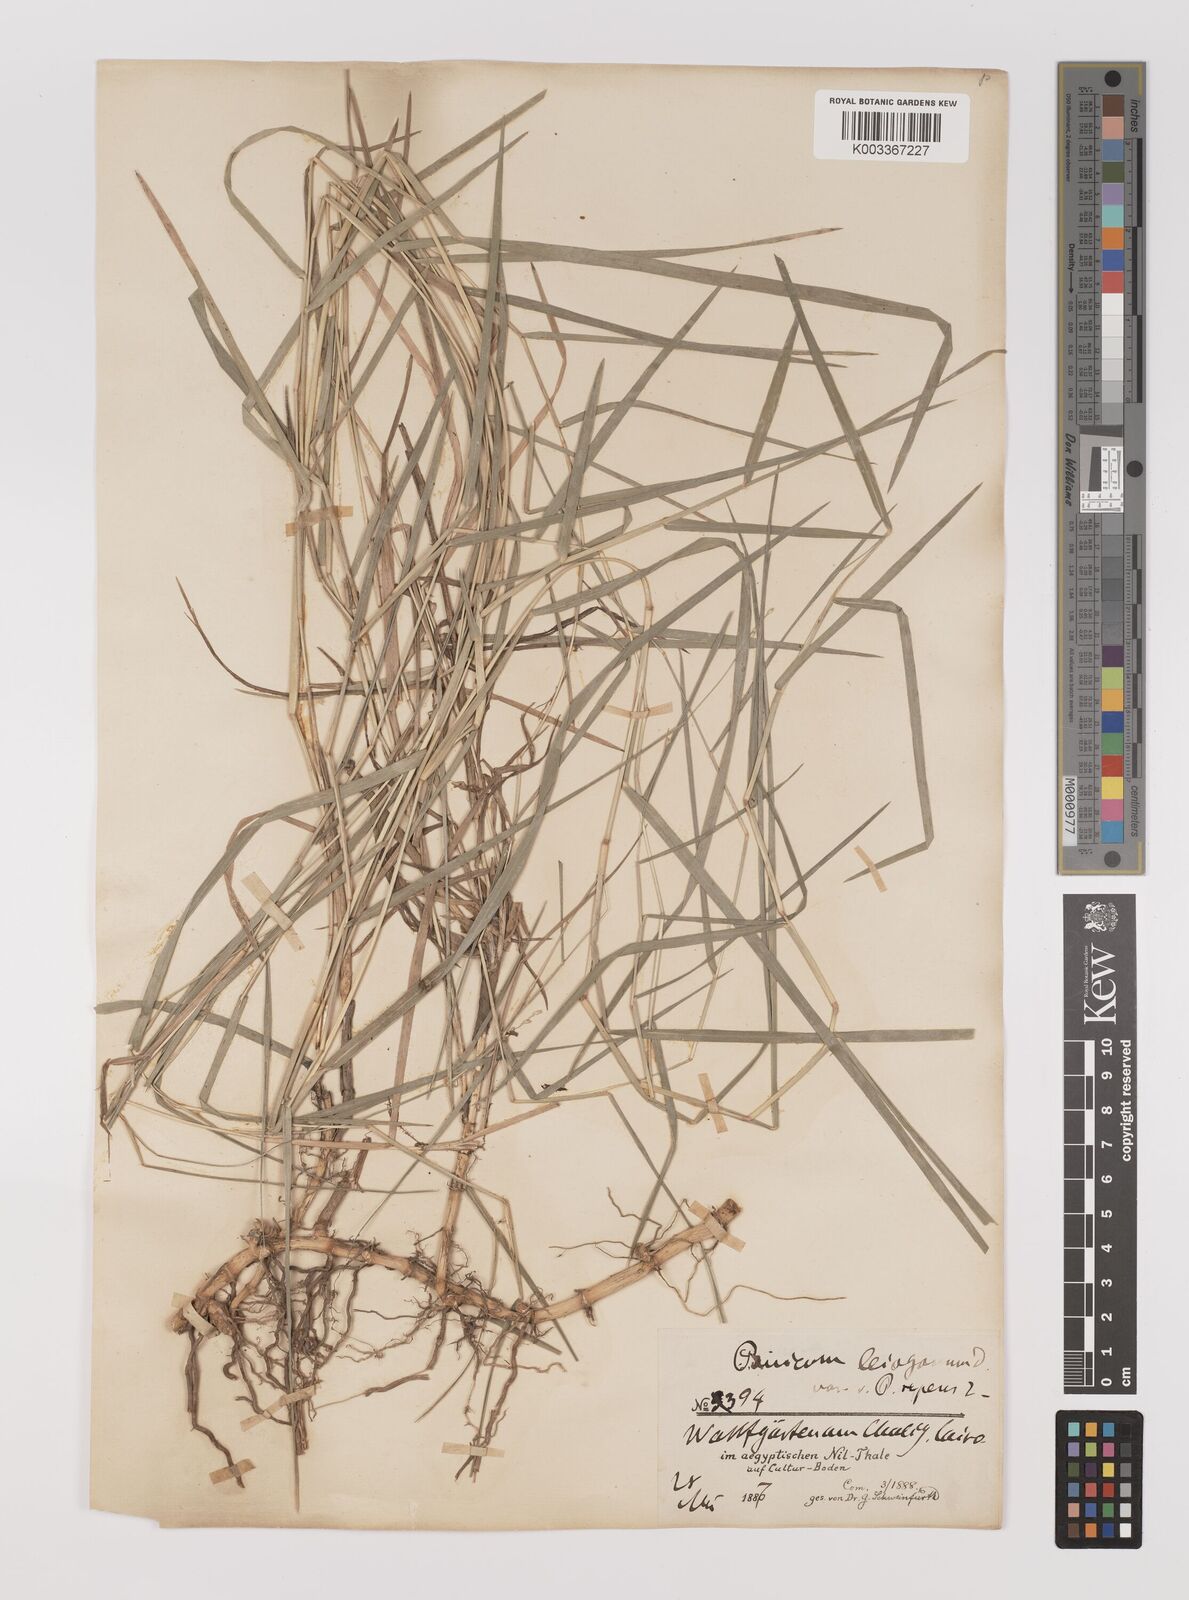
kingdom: Plantae
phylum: Tracheophyta
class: Liliopsida
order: Poales
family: Poaceae
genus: Panicum
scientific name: Panicum repens
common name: Torpedo grass
